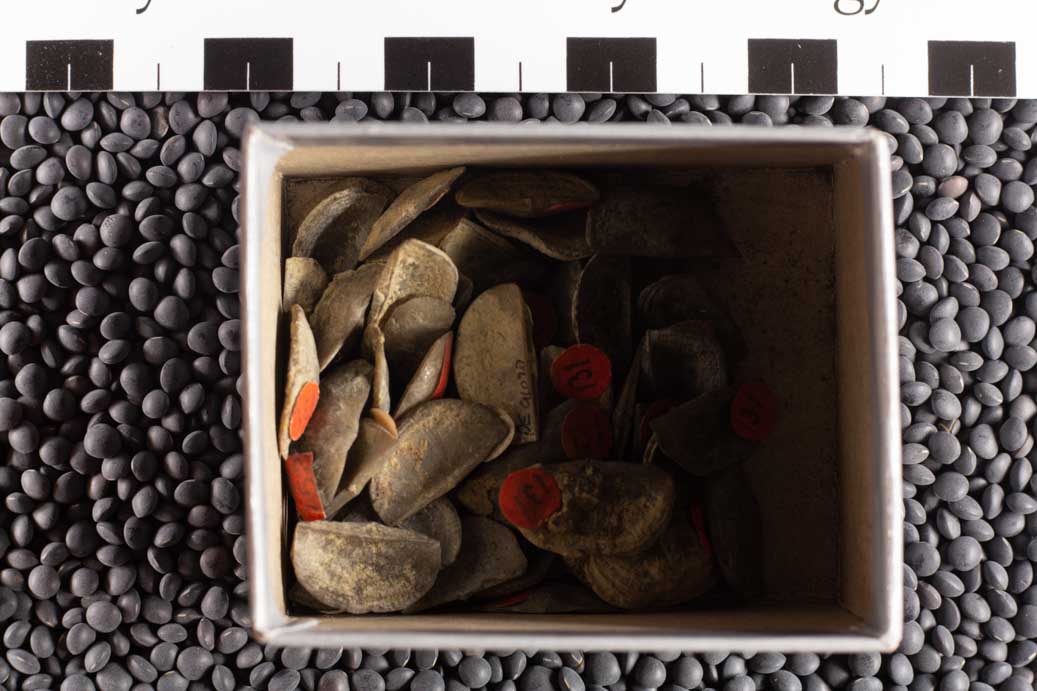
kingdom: Animalia
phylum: Brachiopoda
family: Sowerbyellidae
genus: Sowerbyella
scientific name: Sowerbyella Leptaena sericea
